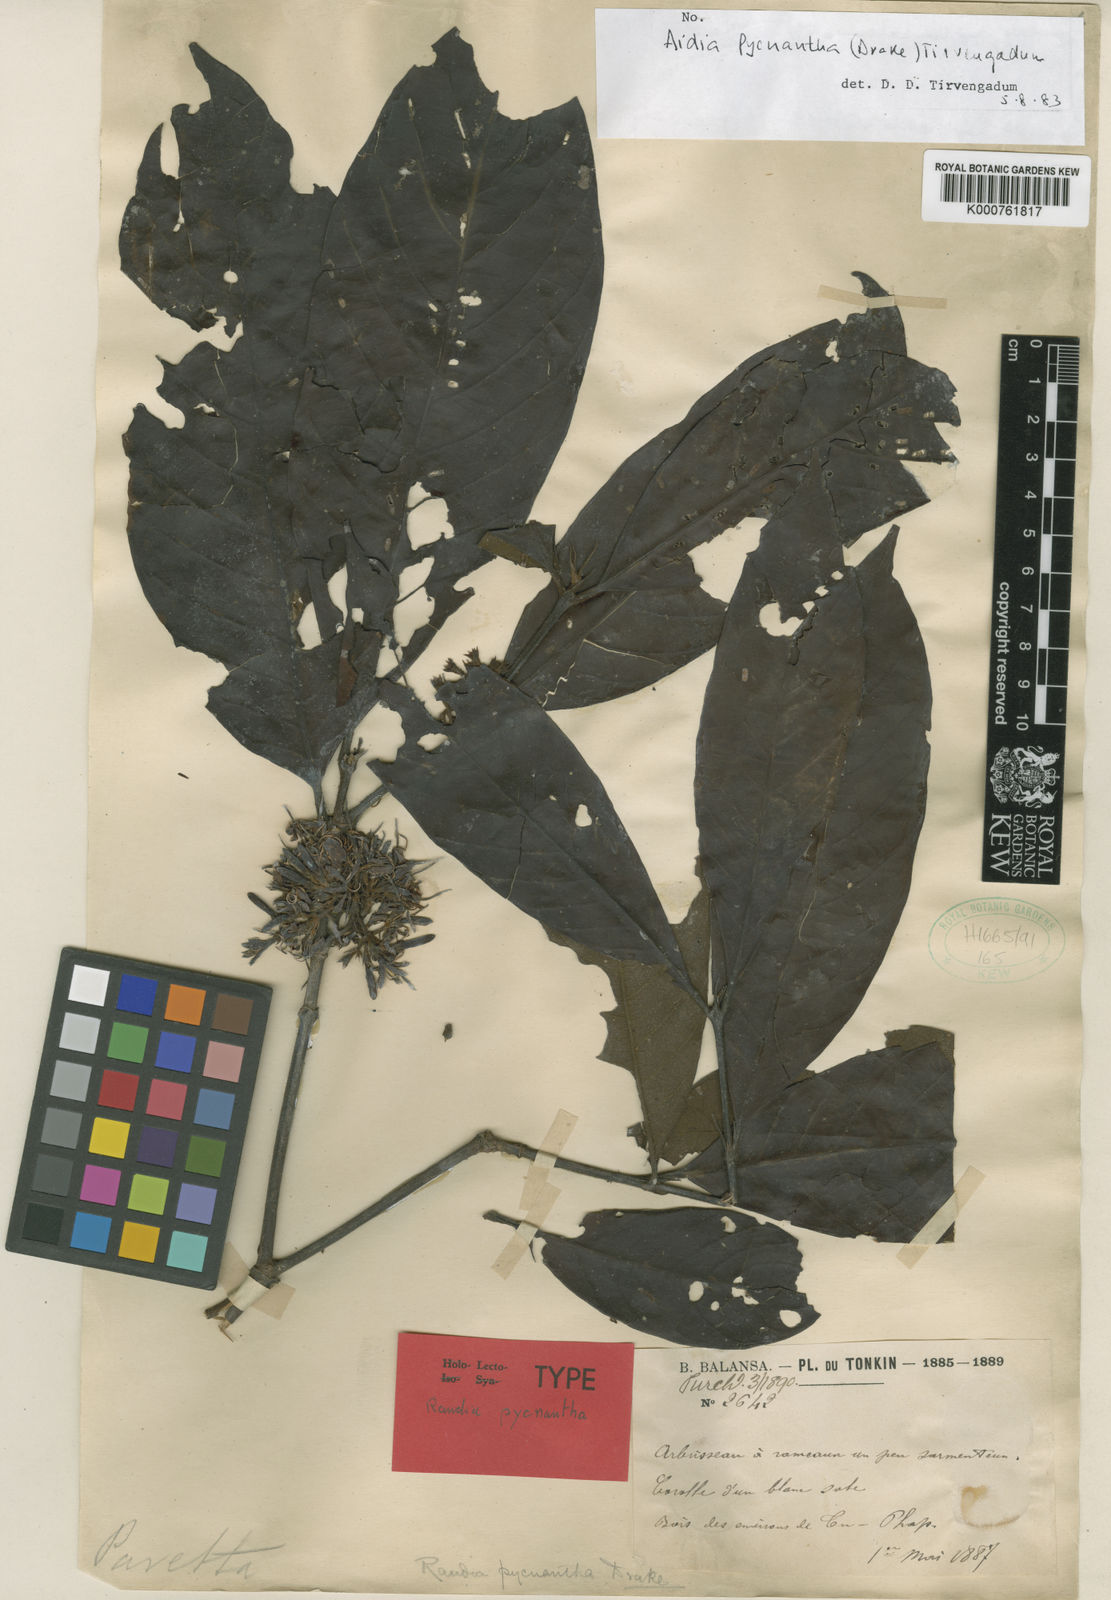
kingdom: Plantae
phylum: Tracheophyta
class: Magnoliopsida
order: Gentianales
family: Rubiaceae
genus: Aidia
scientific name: Aidia pycnantha
